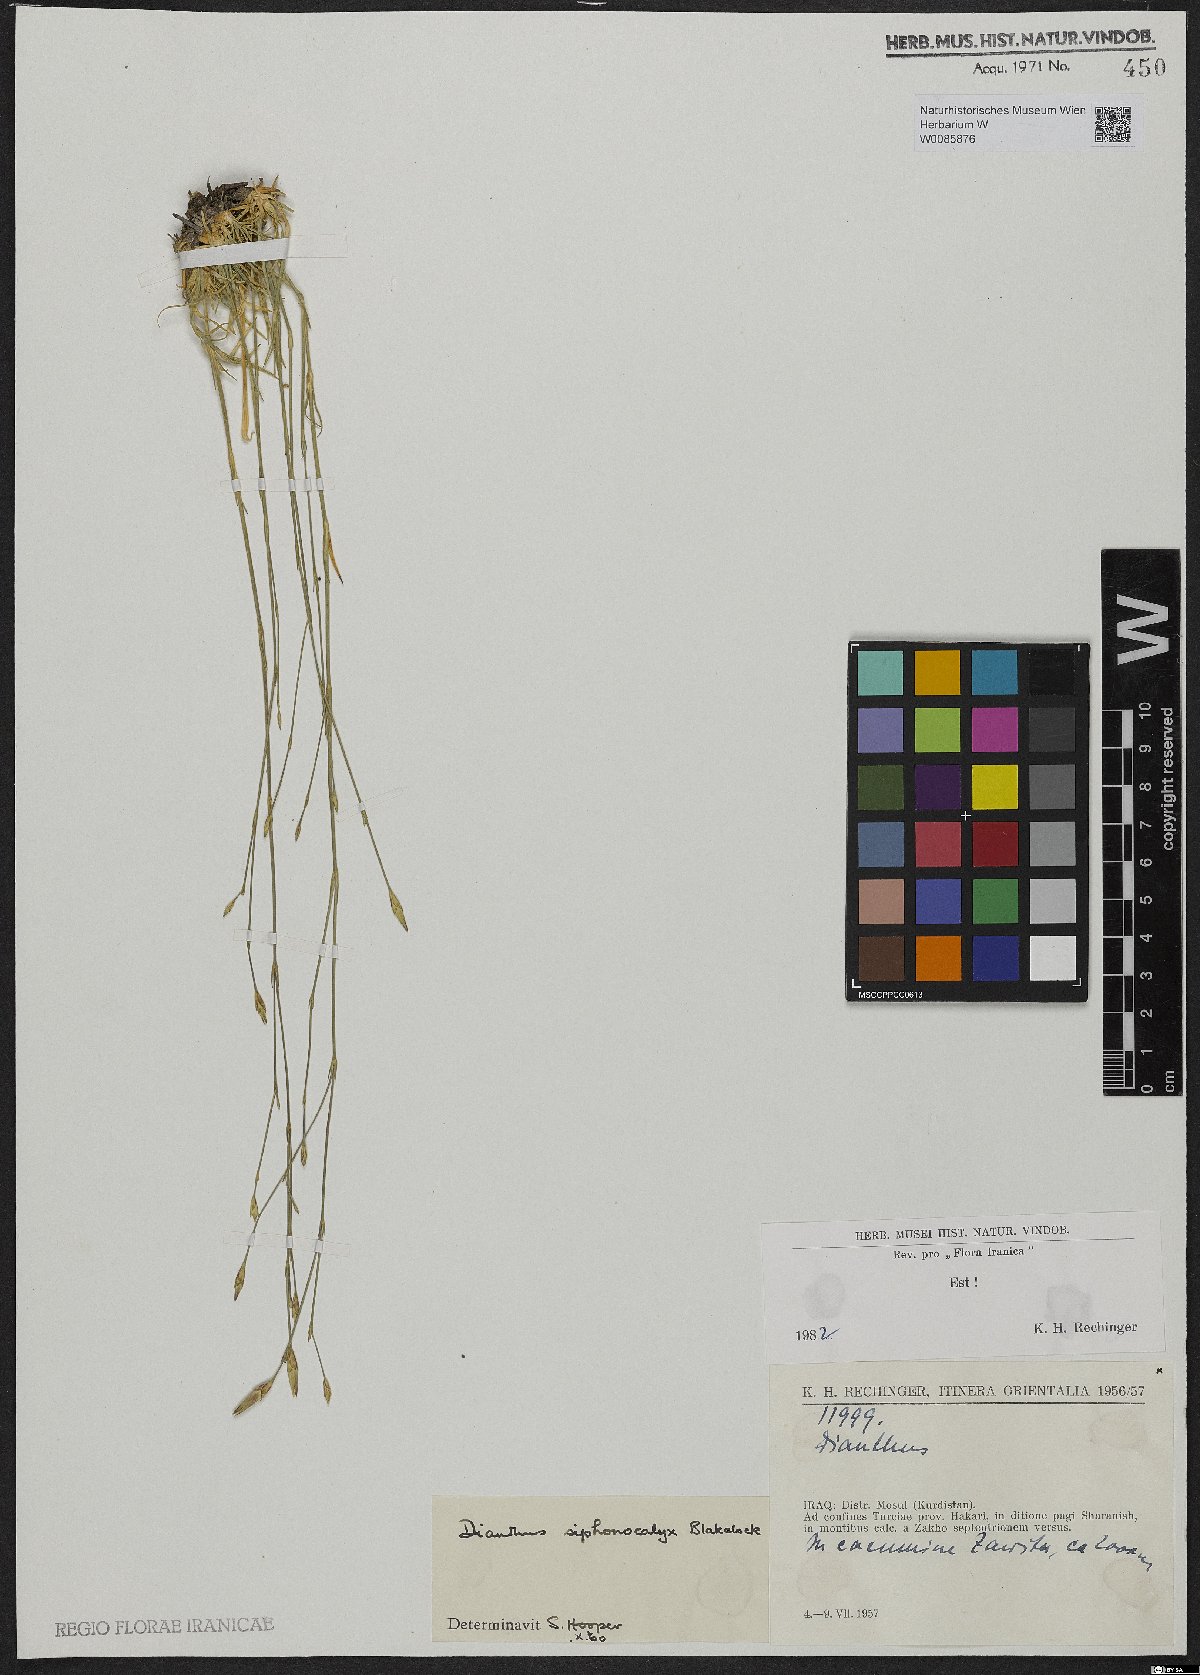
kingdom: Plantae
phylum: Tracheophyta
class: Magnoliopsida
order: Caryophyllales
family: Caryophyllaceae
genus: Dianthus
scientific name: Dianthus siphonocalyx
